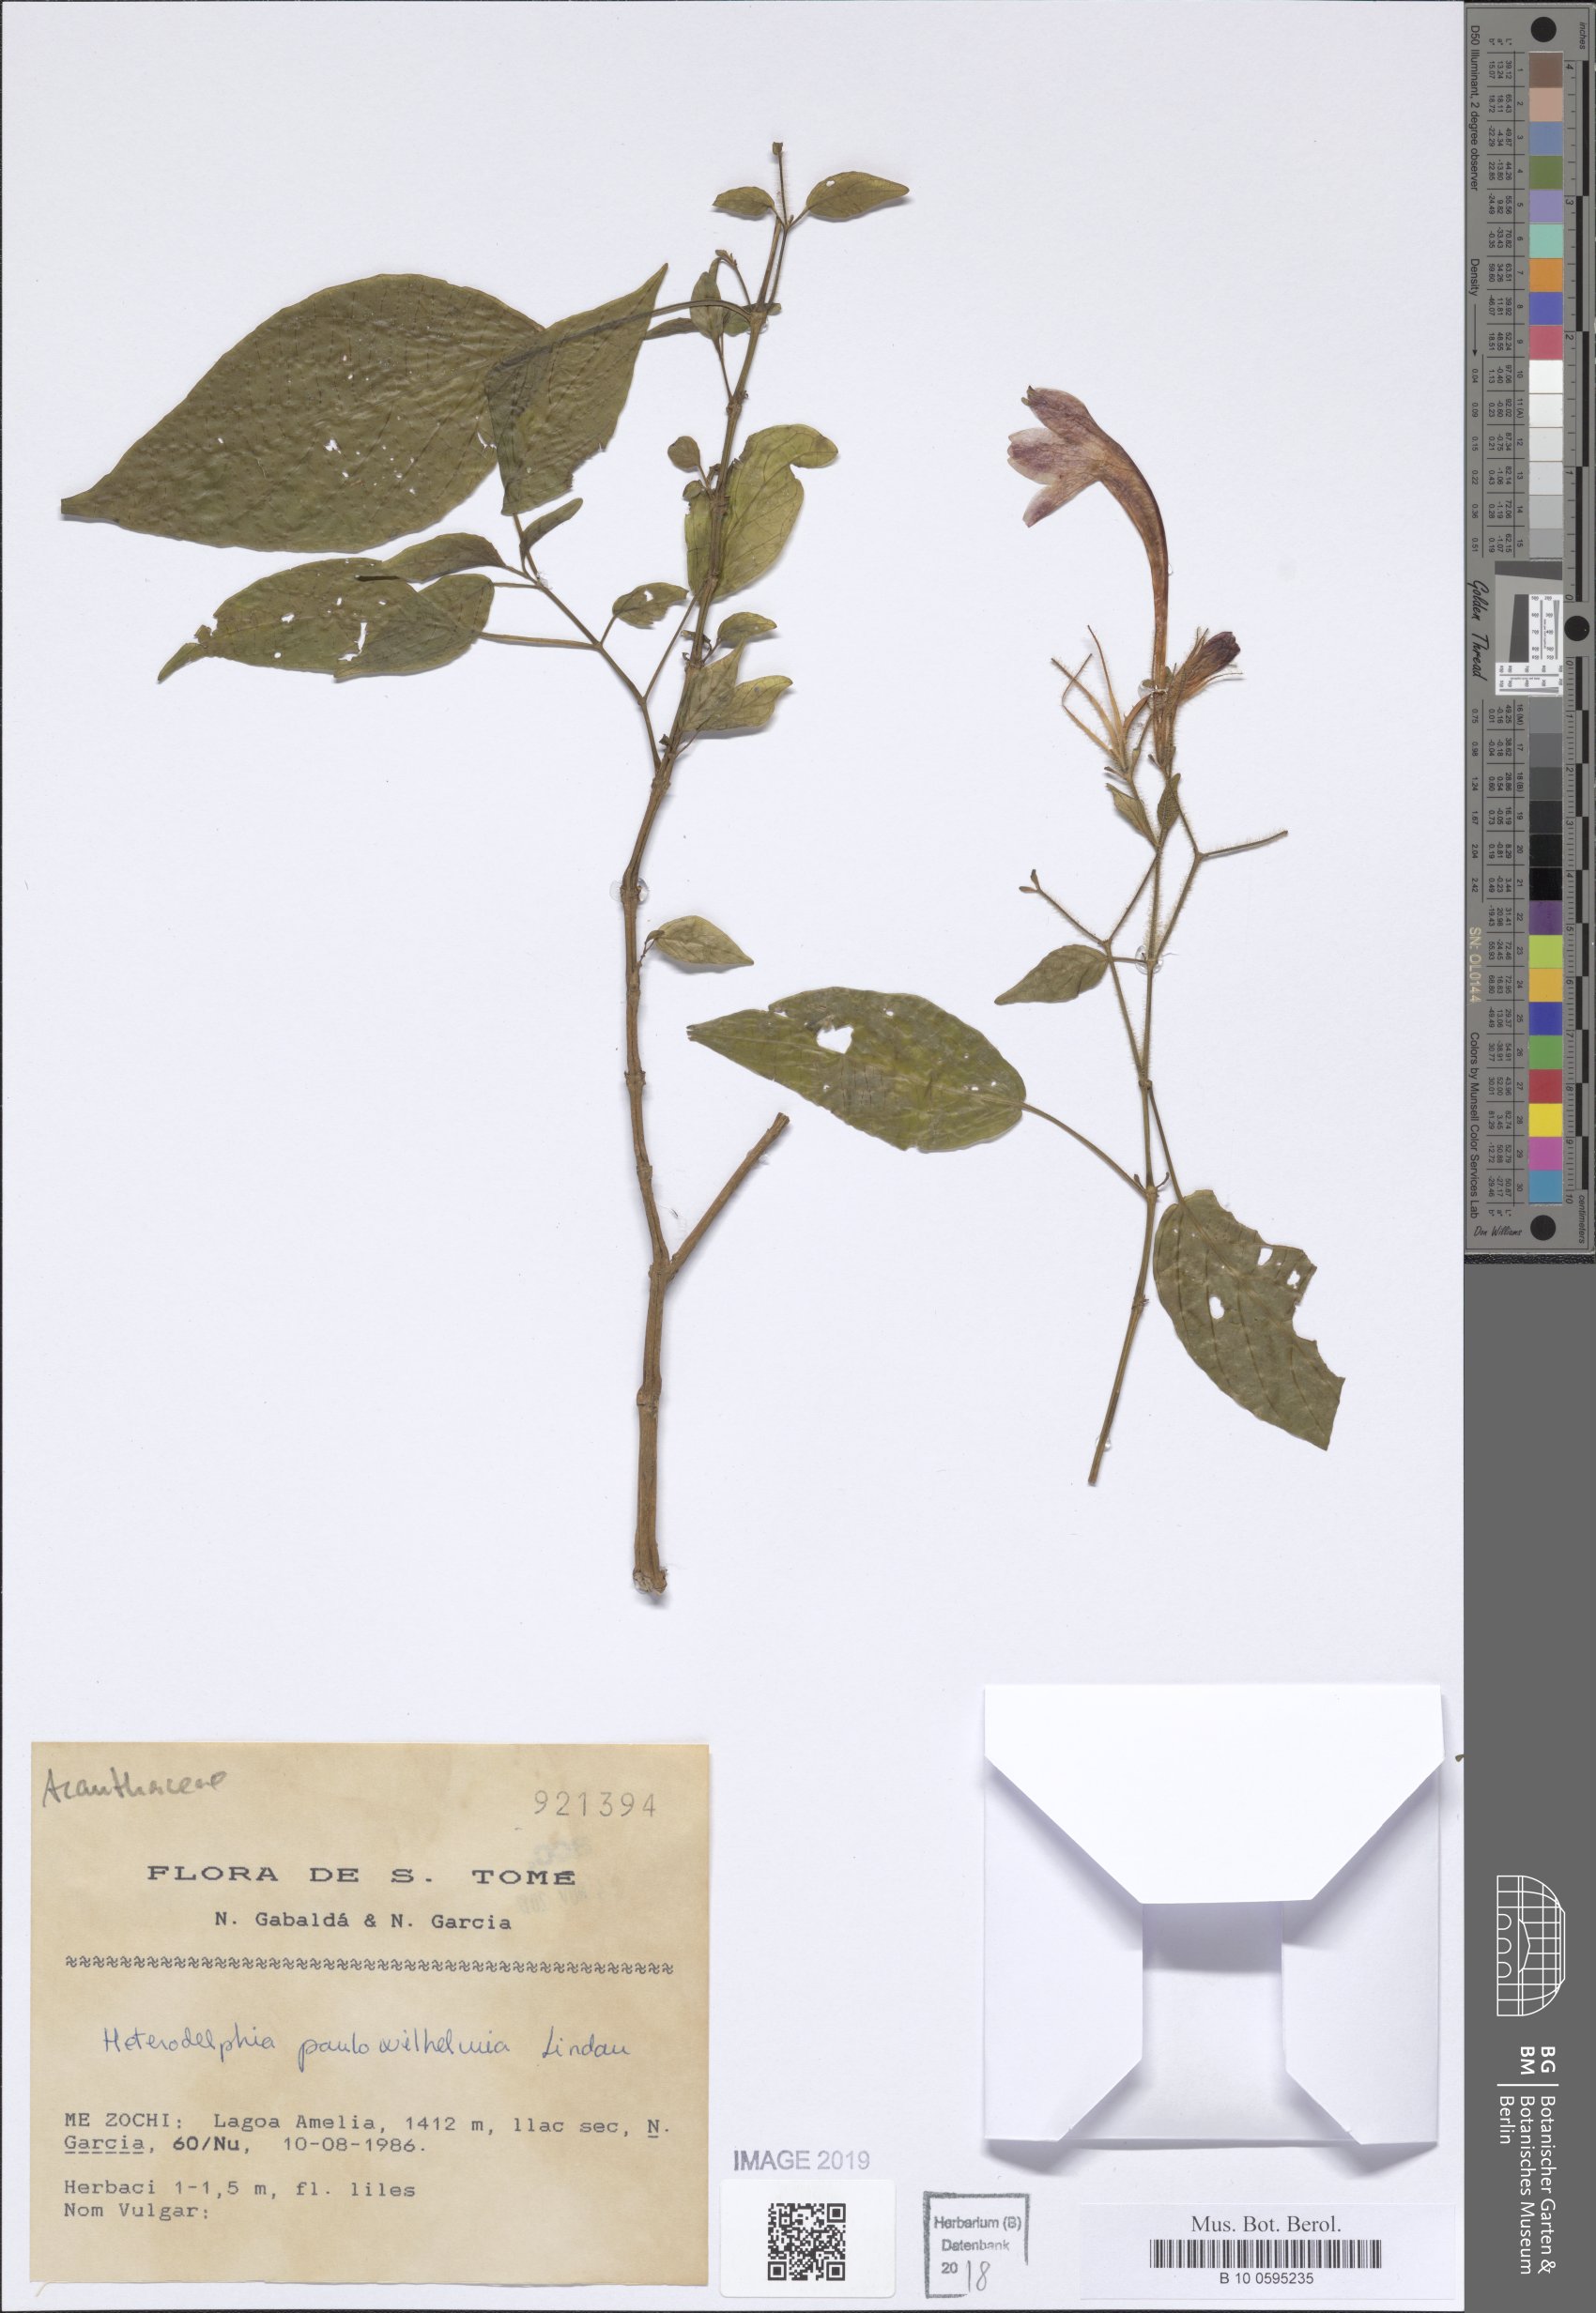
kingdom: Plantae
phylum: Tracheophyta
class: Magnoliopsida
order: Lamiales
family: Acanthaceae
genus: Heteradelphia
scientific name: Heteradelphia paulowilhelmia
